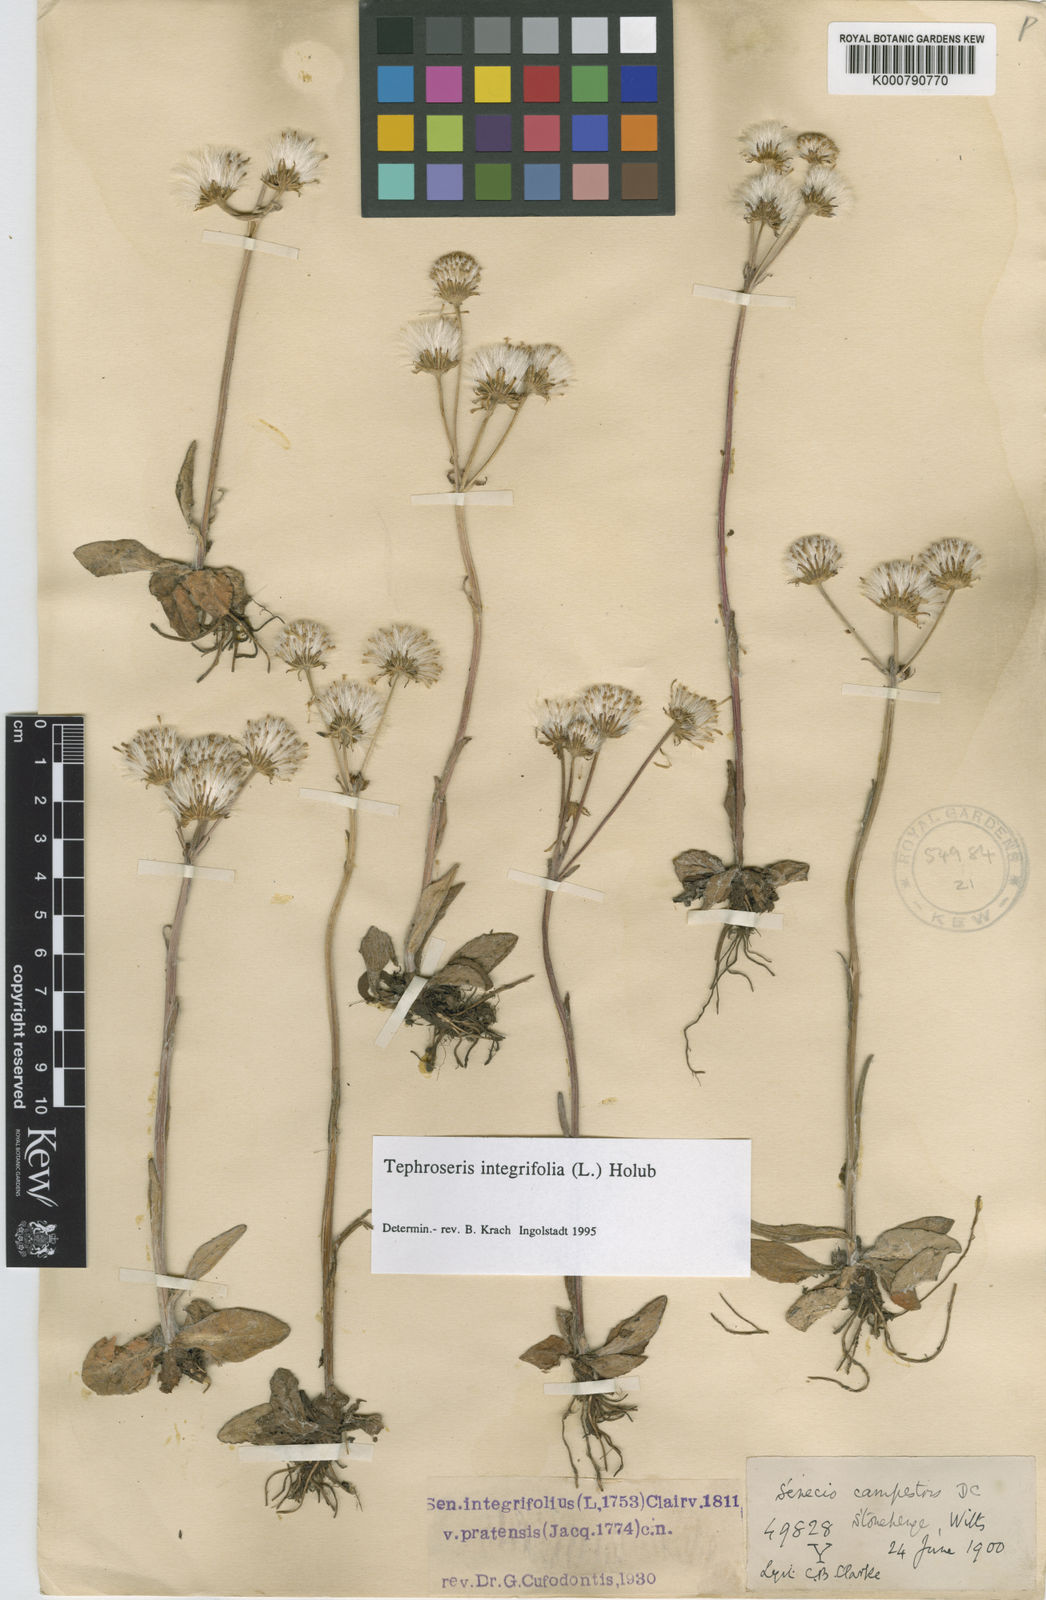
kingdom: Plantae
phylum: Tracheophyta
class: Magnoliopsida
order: Asterales
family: Asteraceae
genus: Tephroseris
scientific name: Tephroseris integrifolia
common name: Field fleawort
